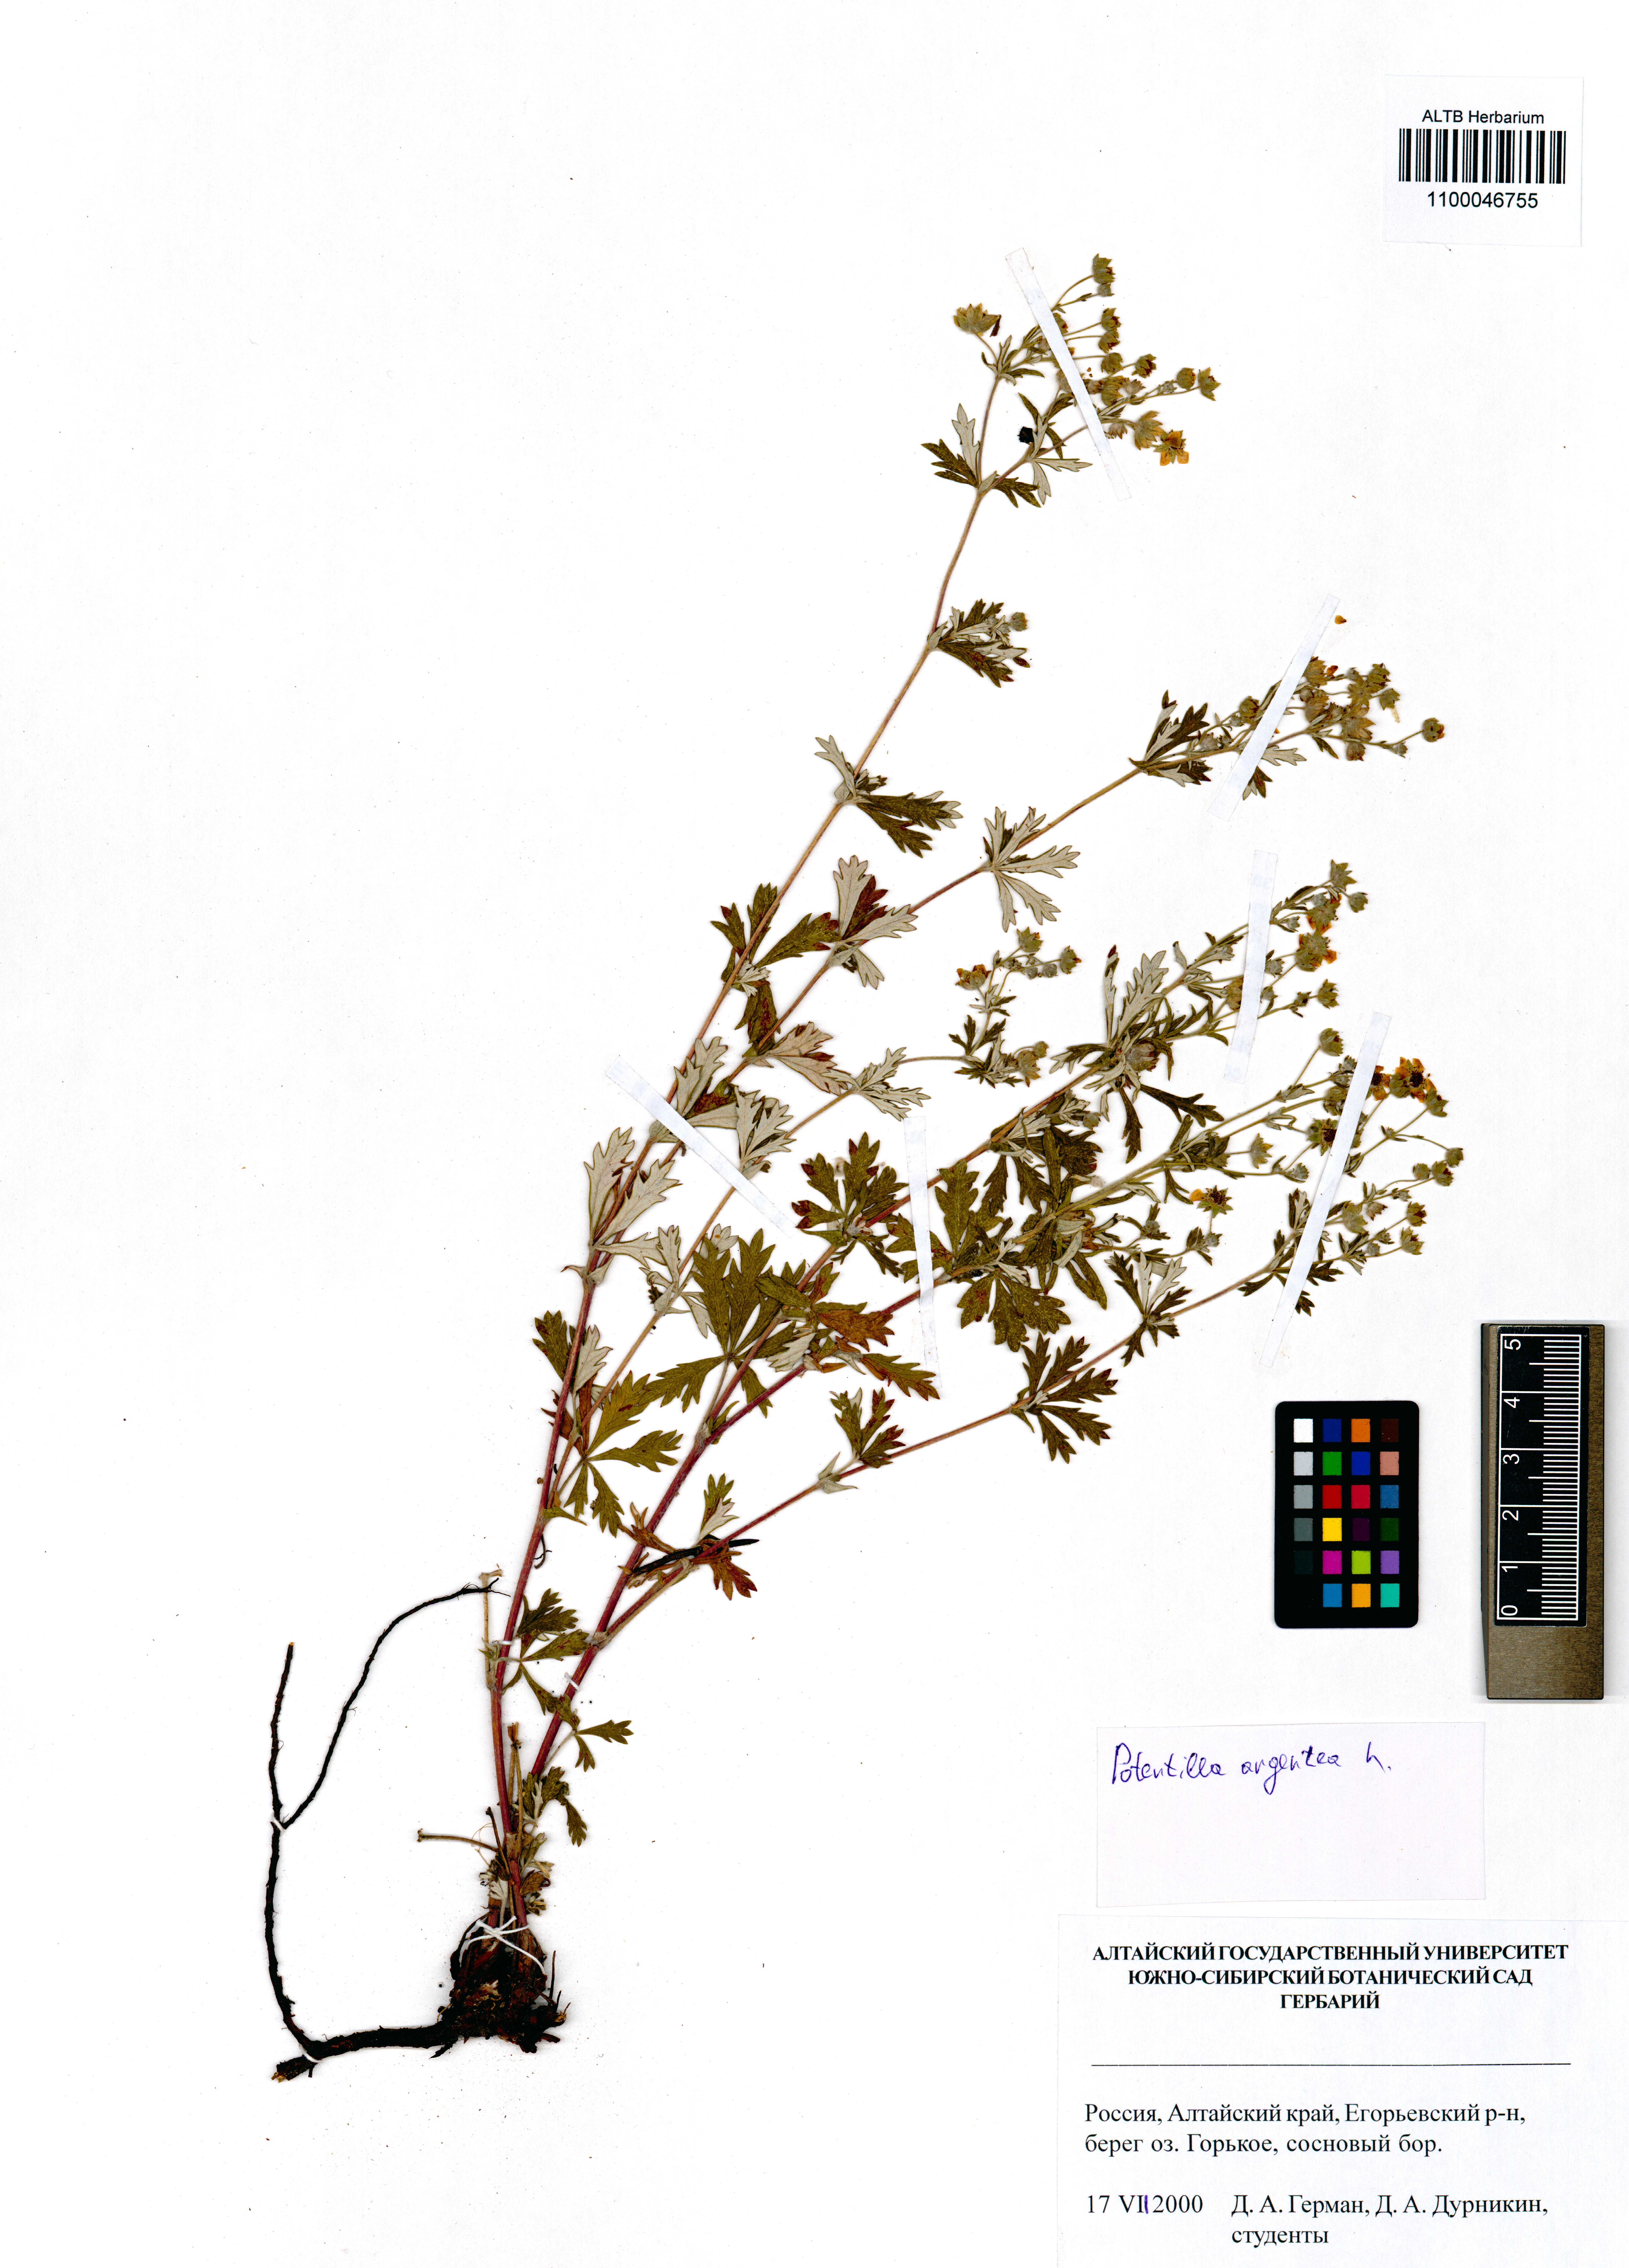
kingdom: Plantae
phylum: Tracheophyta
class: Magnoliopsida
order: Rosales
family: Rosaceae
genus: Potentilla
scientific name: Potentilla argentea
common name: Hoary cinquefoil
